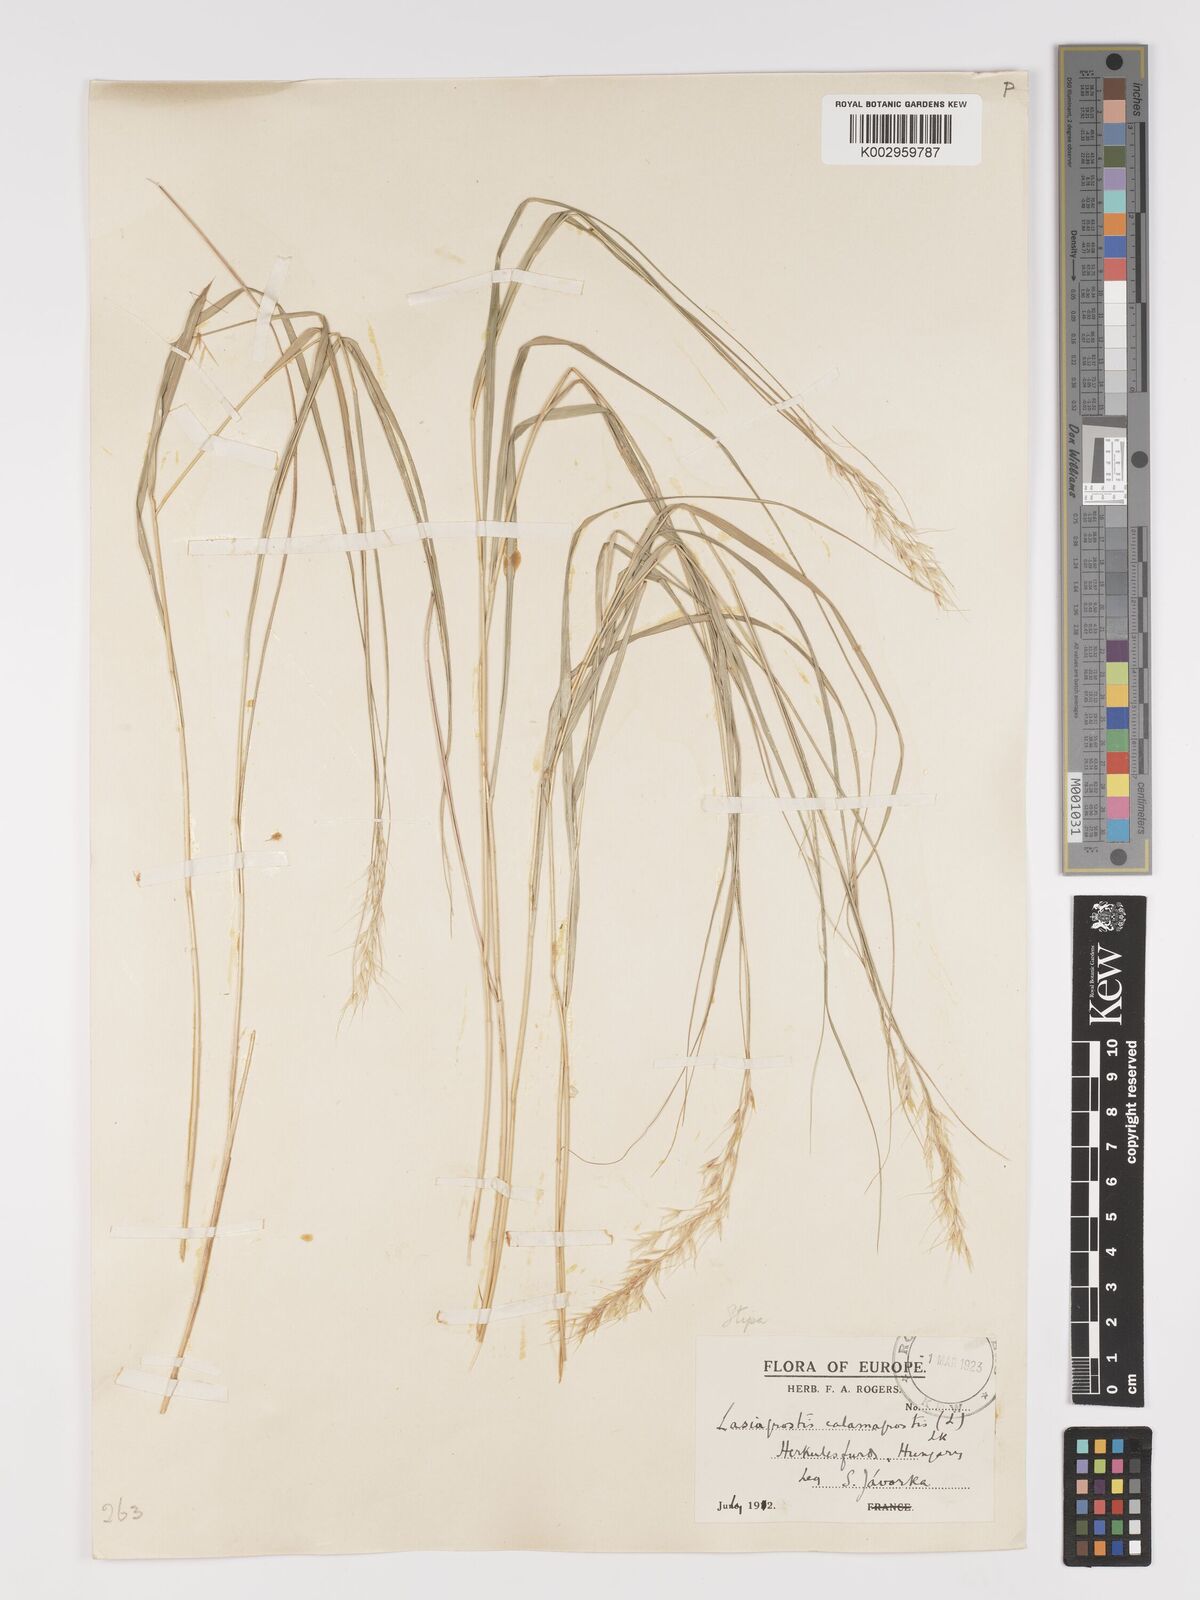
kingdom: Plantae
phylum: Tracheophyta
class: Liliopsida
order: Poales
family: Poaceae
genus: Achnatherum
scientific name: Achnatherum calamagrostis
